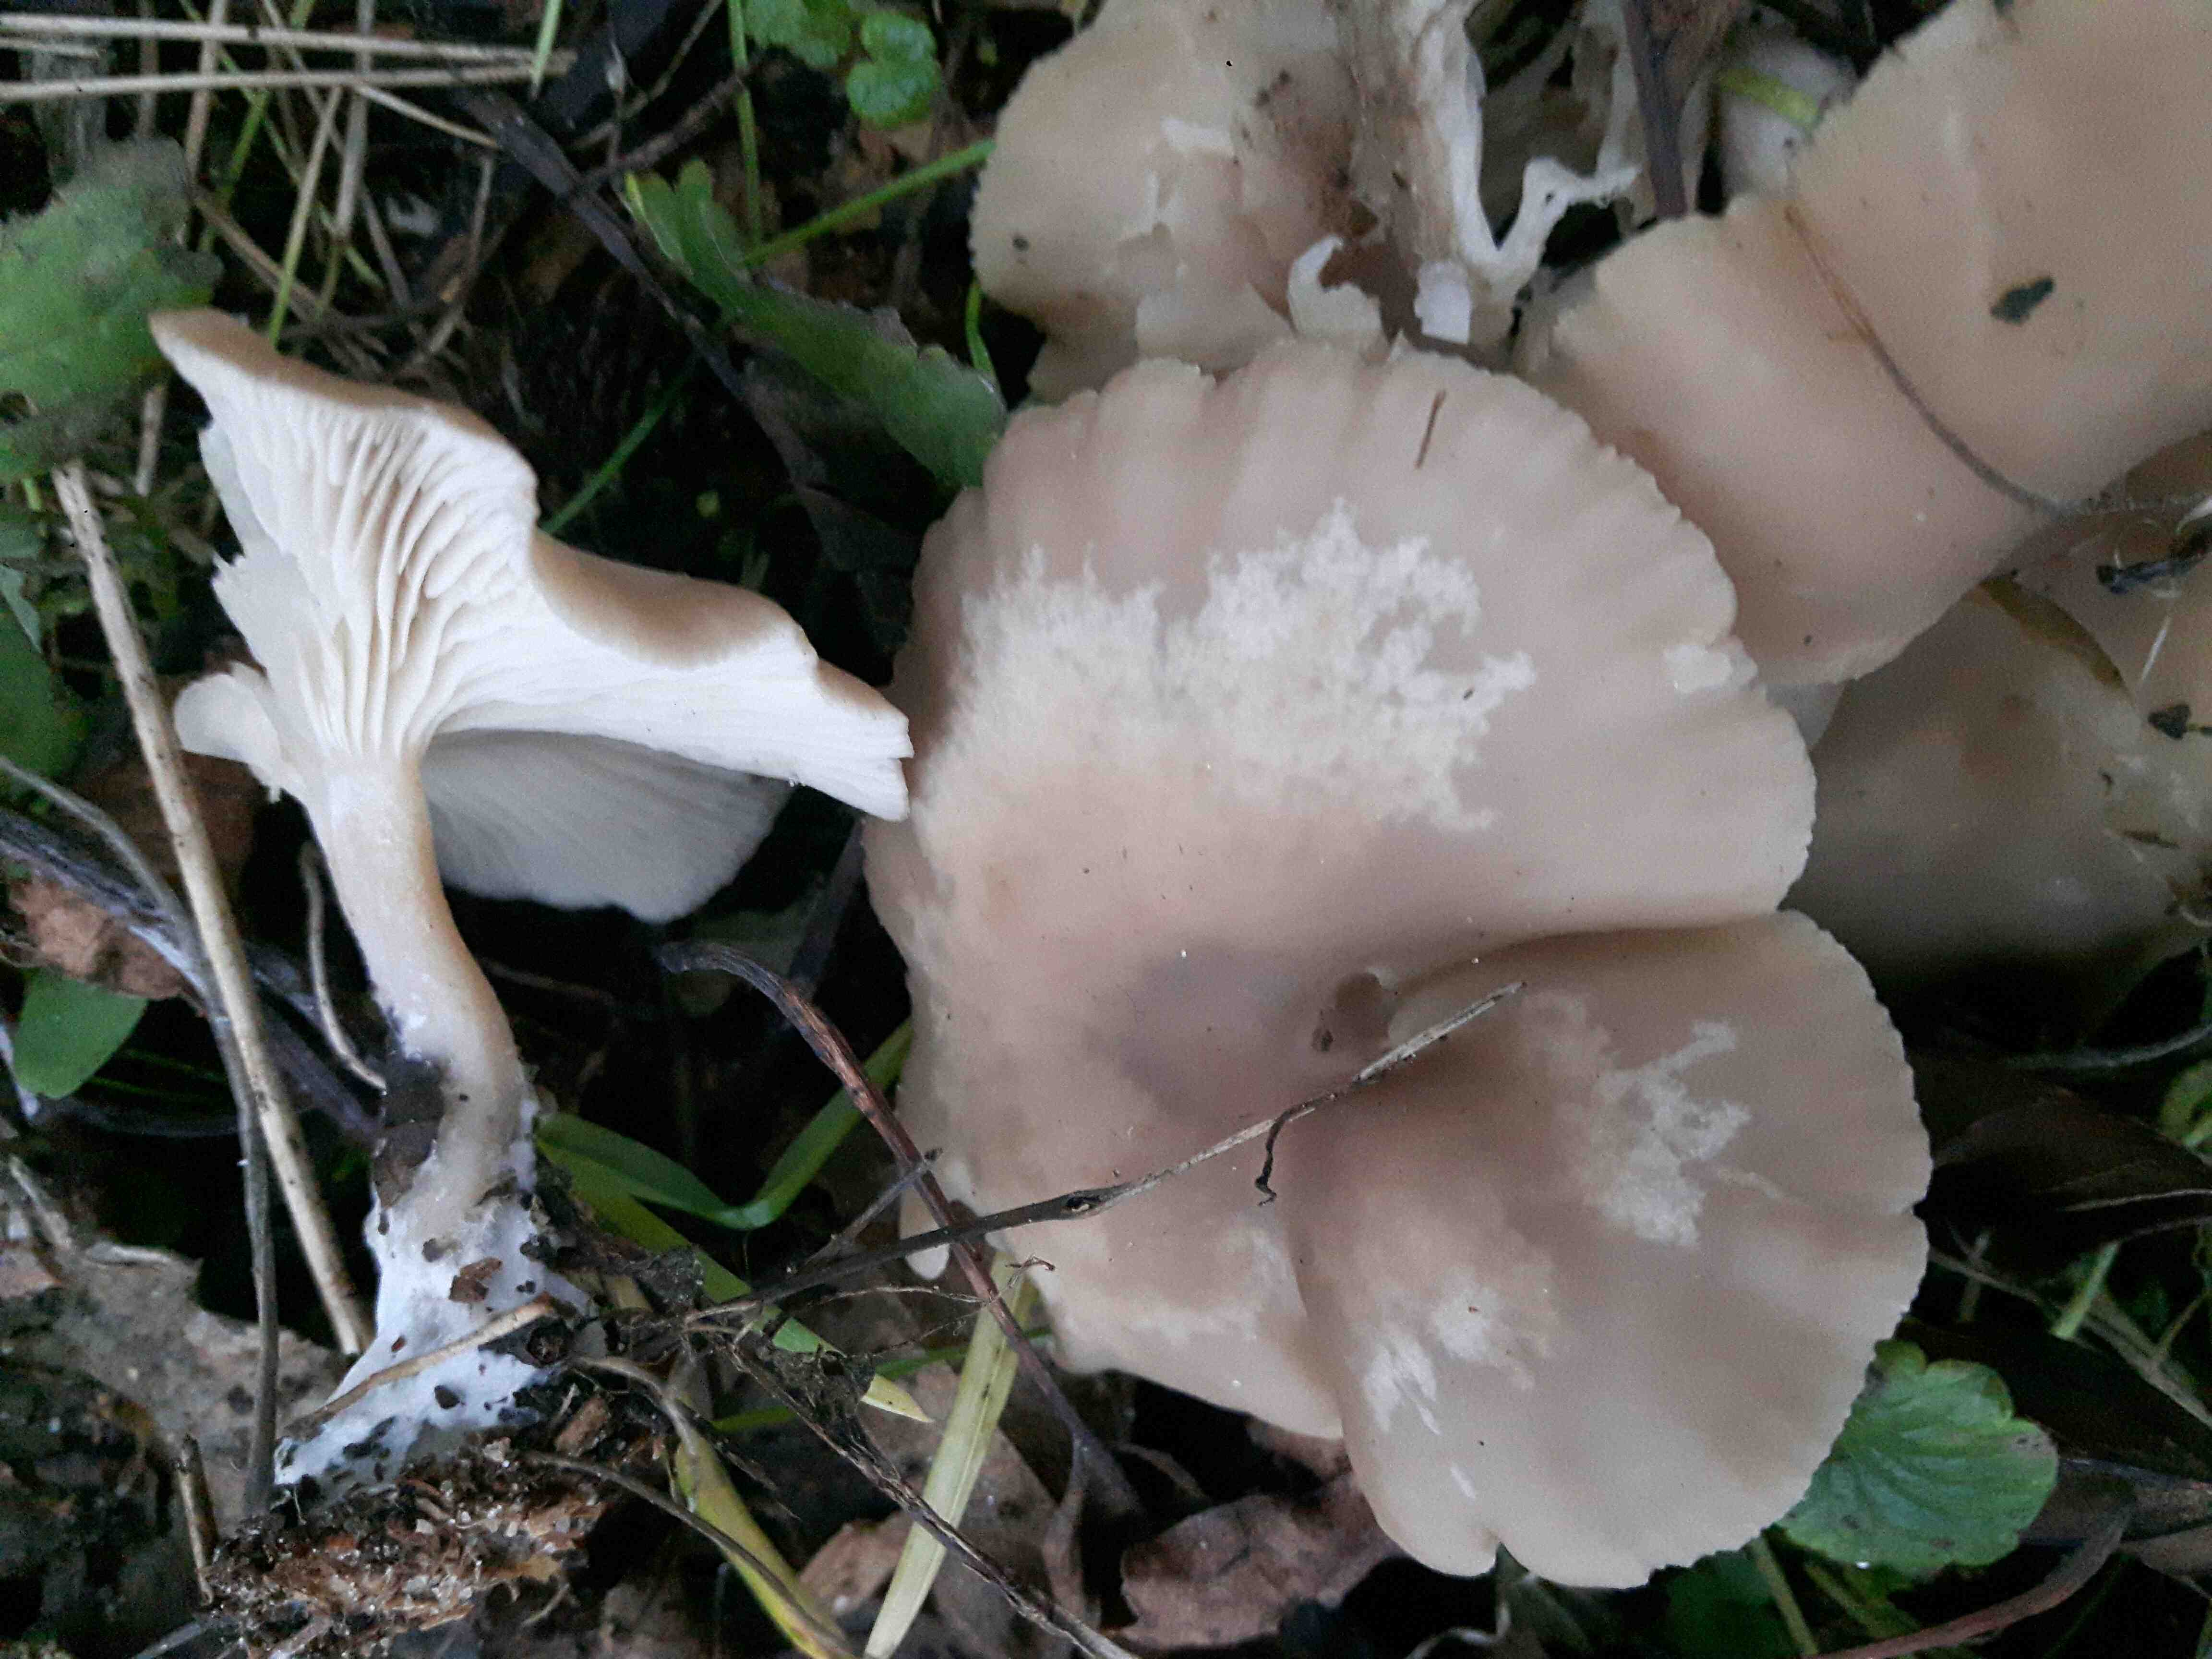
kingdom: Fungi
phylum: Basidiomycota
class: Agaricomycetes
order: Agaricales
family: Tricholomataceae
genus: Clitocybe
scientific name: Clitocybe
